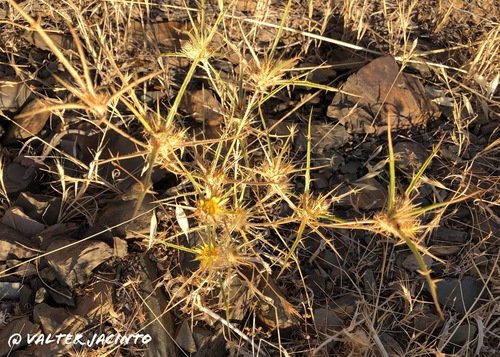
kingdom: Plantae
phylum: Tracheophyta
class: Magnoliopsida
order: Asterales
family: Asteraceae
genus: Carlina
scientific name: Carlina racemosa
